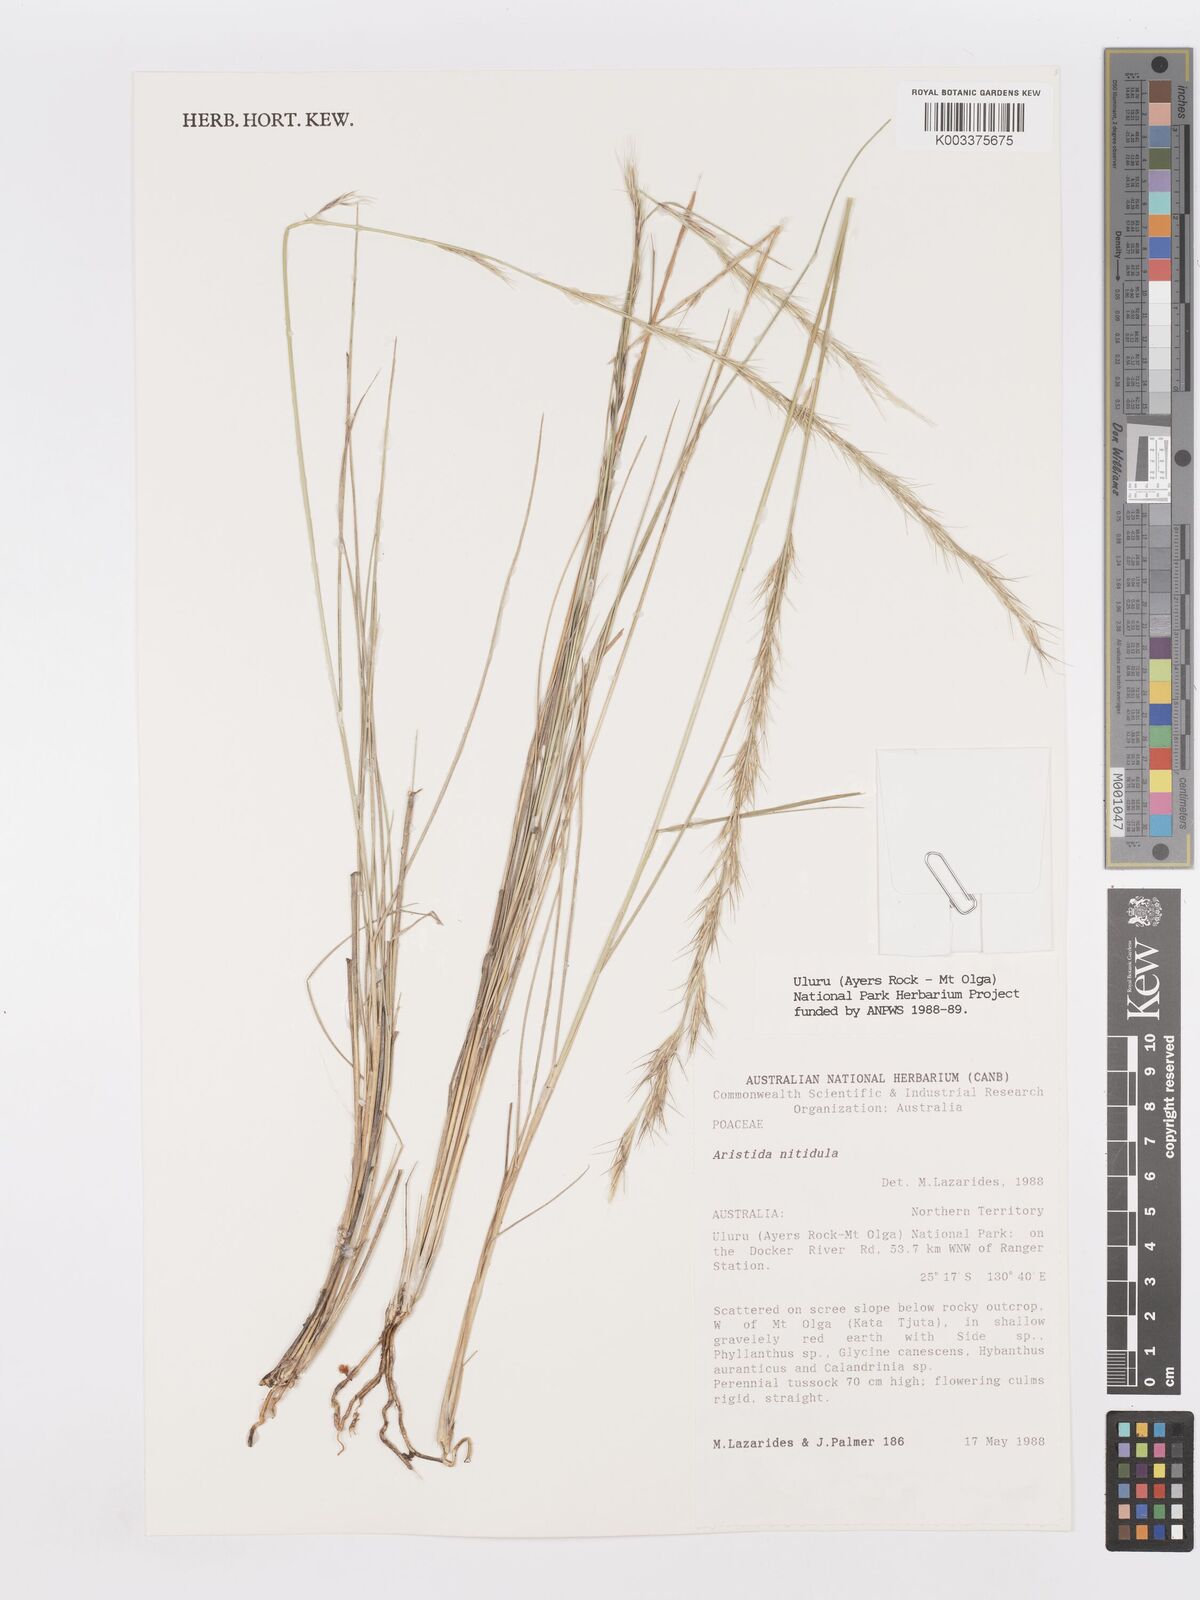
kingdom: Plantae
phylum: Tracheophyta
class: Liliopsida
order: Poales
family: Poaceae
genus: Aristida
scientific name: Aristida nitidula
